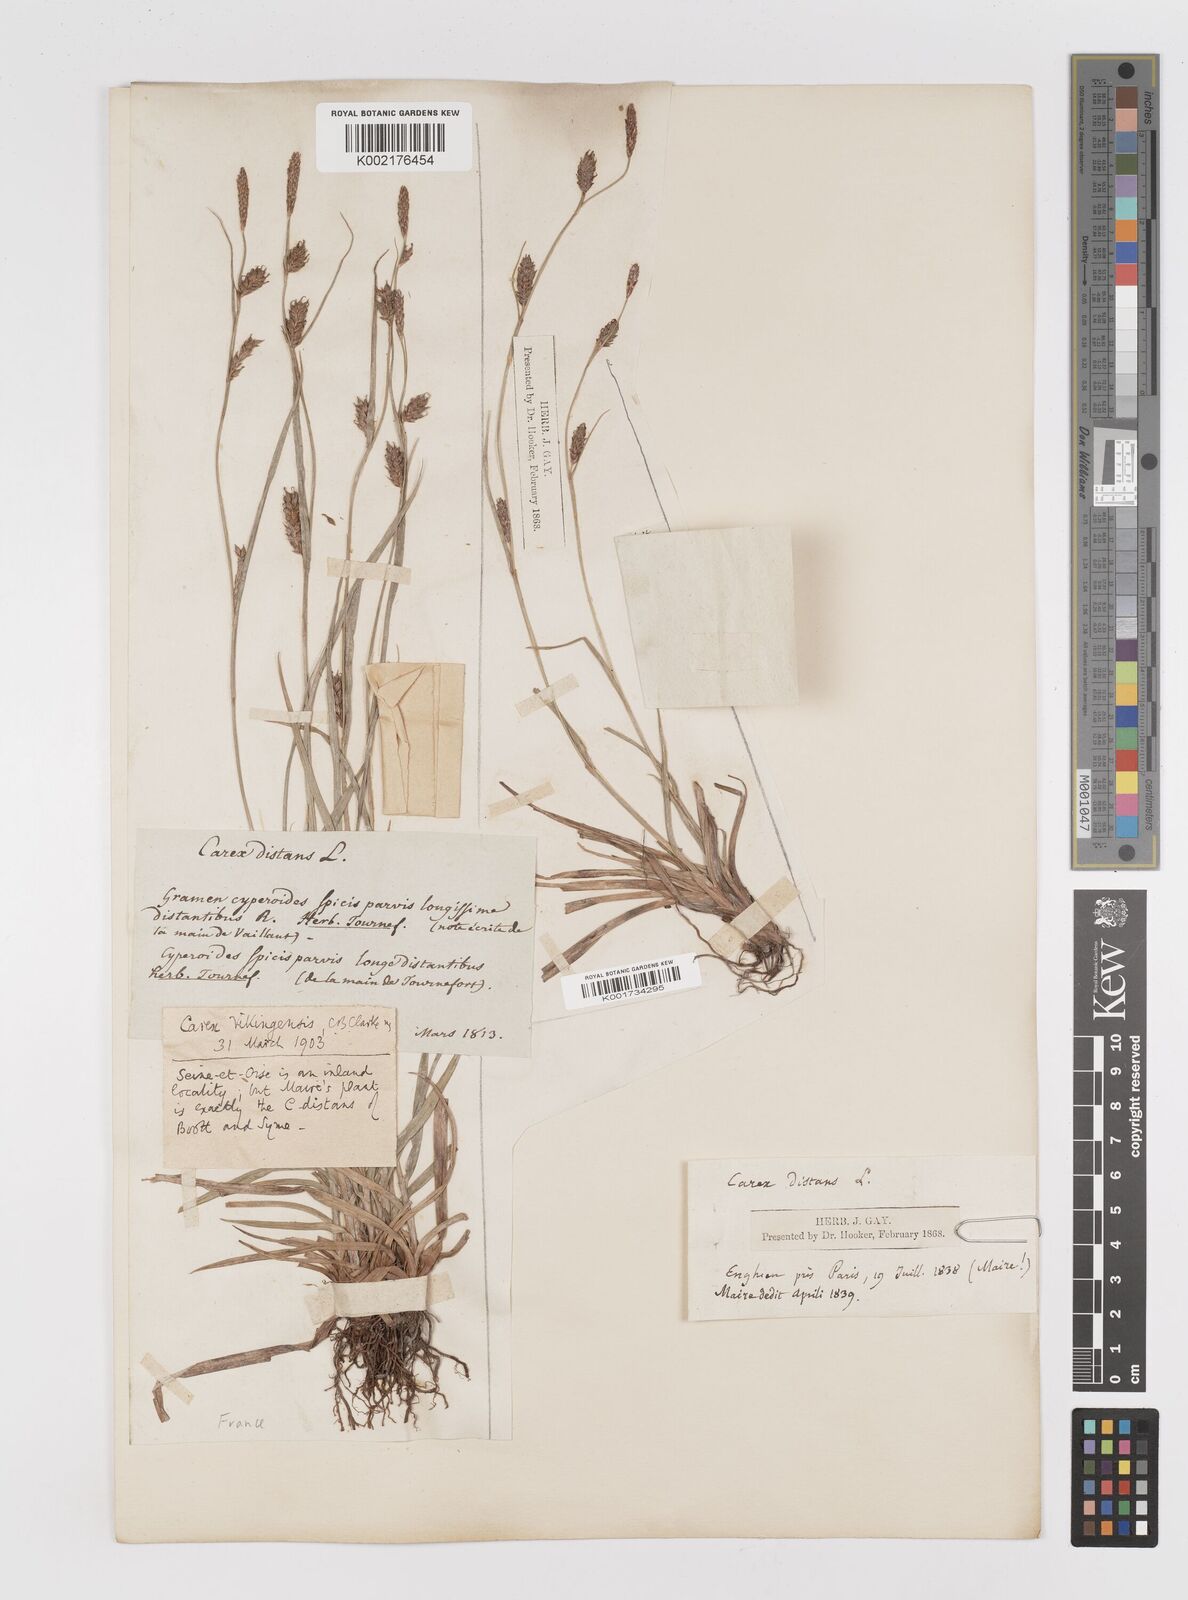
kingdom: Plantae
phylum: Tracheophyta
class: Liliopsida
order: Poales
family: Cyperaceae
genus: Carex
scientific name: Carex distans
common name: Distant sedge
